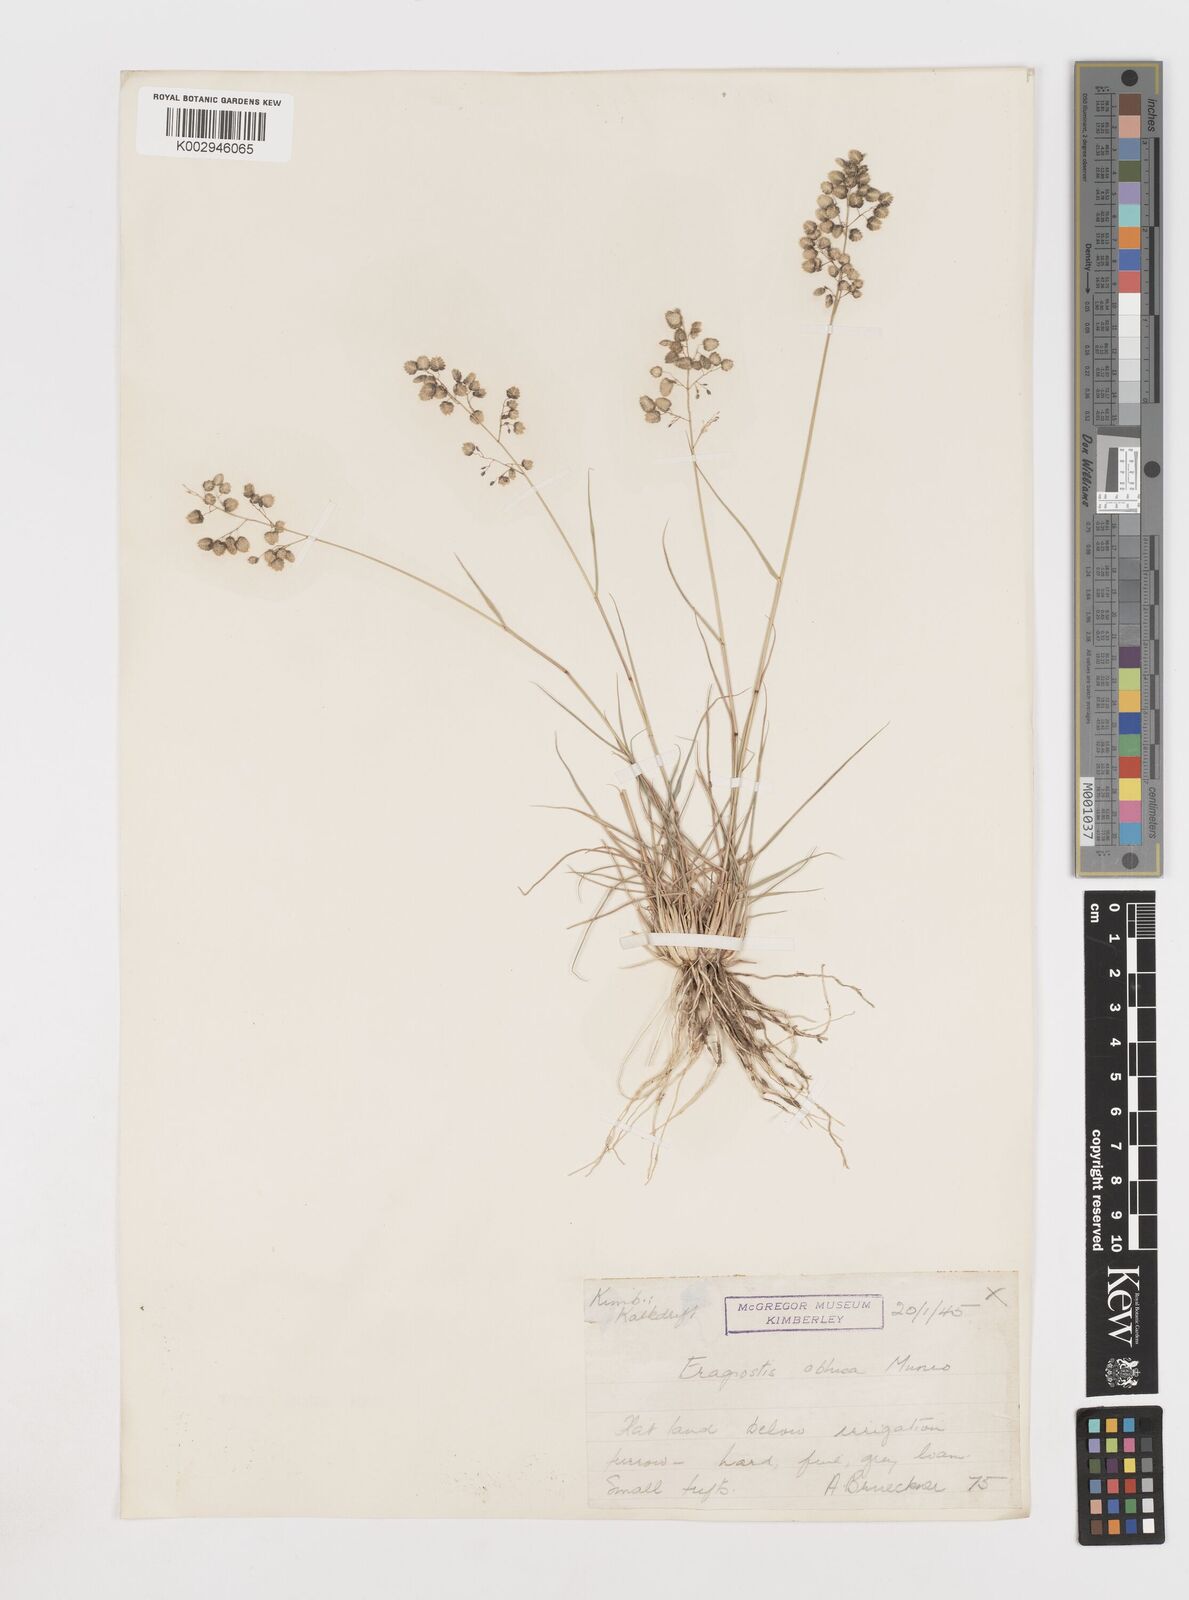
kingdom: Plantae
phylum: Tracheophyta
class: Liliopsida
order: Poales
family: Poaceae
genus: Eragrostis
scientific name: Eragrostis obtusa
